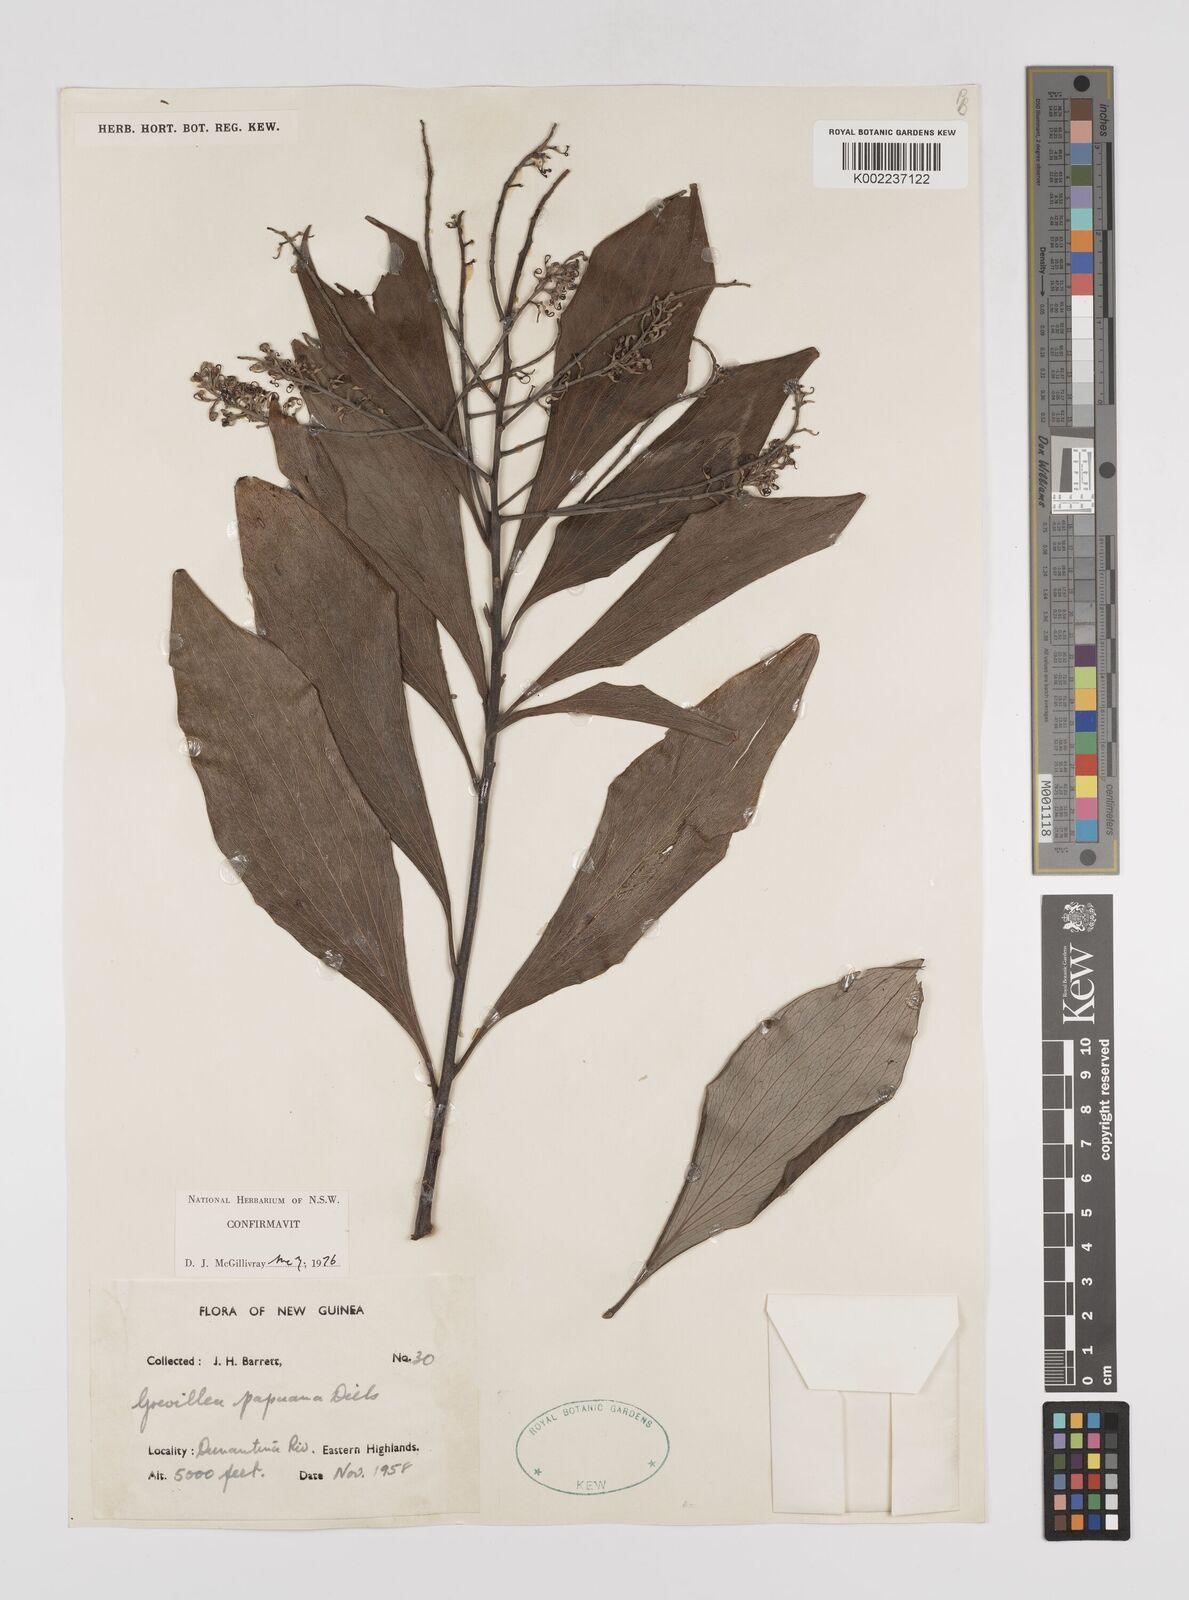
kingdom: Plantae
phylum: Tracheophyta
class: Magnoliopsida
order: Proteales
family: Proteaceae
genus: Grevillea
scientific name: Grevillea papuana
